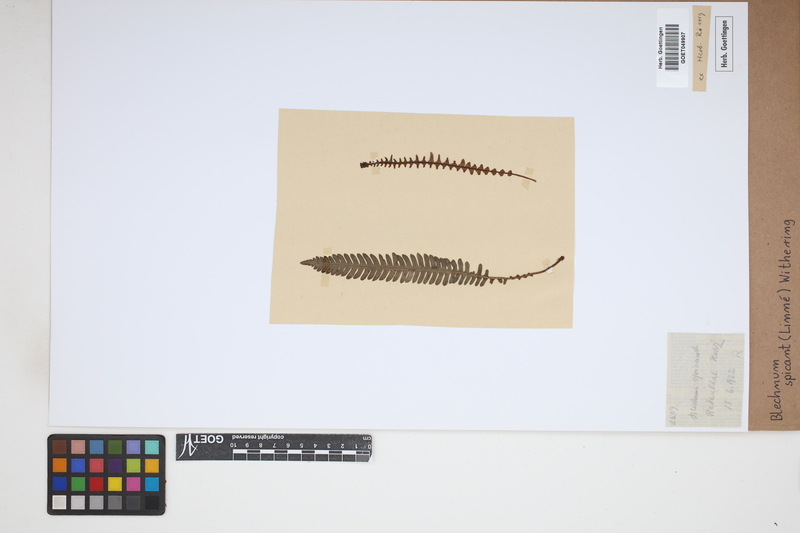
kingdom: Plantae
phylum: Tracheophyta
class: Polypodiopsida
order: Polypodiales
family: Blechnaceae
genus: Struthiopteris
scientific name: Struthiopteris spicant
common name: Deer fern
